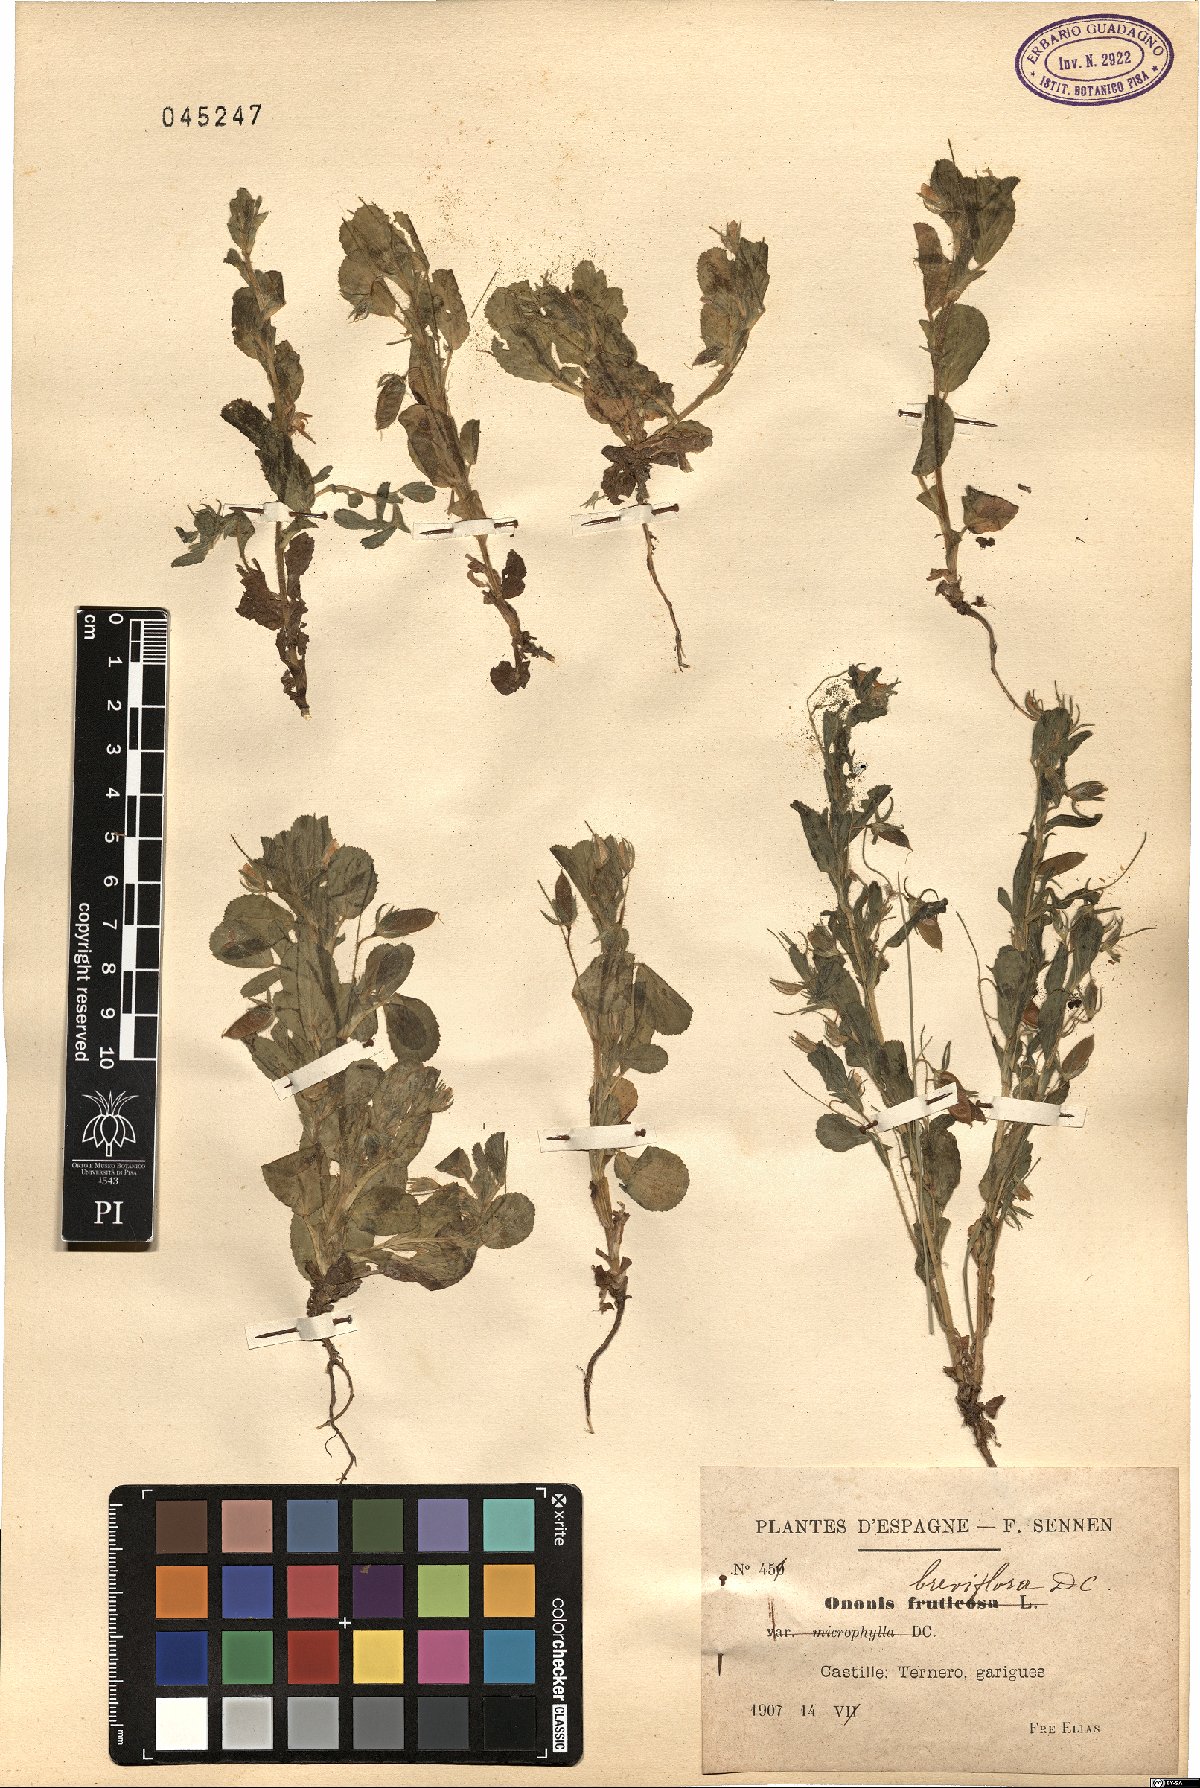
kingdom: Plantae
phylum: Tracheophyta
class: Magnoliopsida
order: Fabales
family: Fabaceae
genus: Ononis
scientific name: Ononis viscosa
